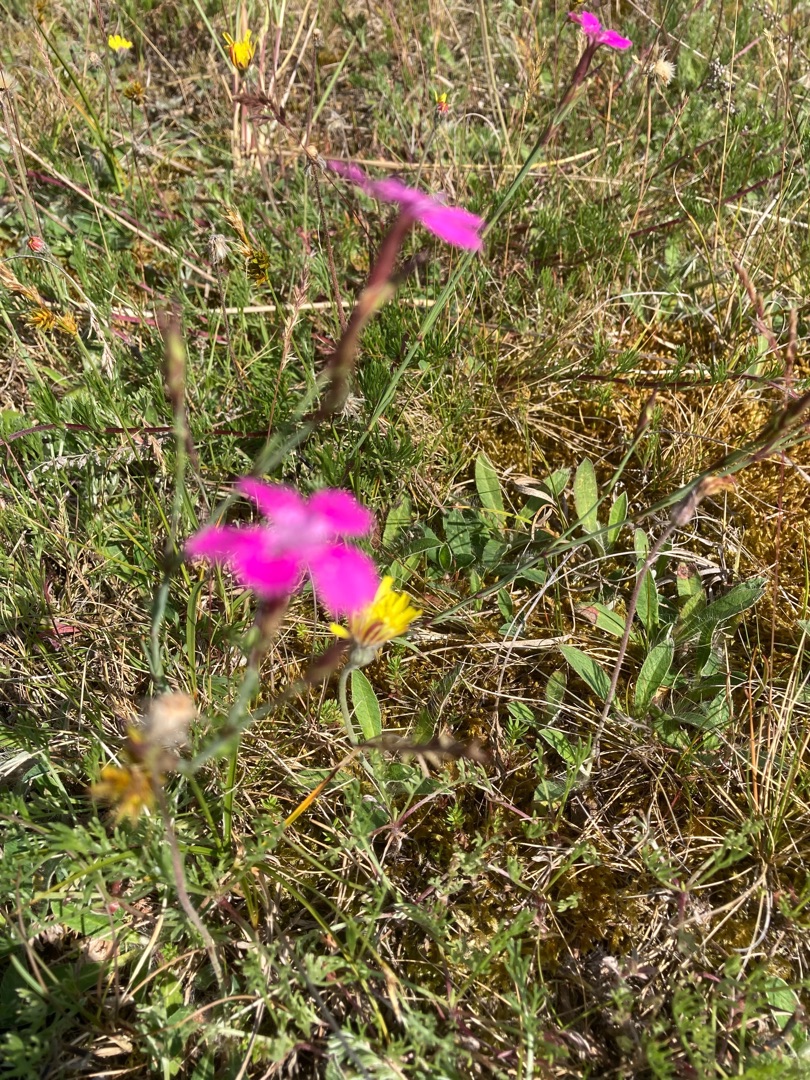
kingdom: Plantae
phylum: Tracheophyta
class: Magnoliopsida
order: Caryophyllales
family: Caryophyllaceae
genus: Dianthus
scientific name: Dianthus deltoides
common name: Bakke-nellike
